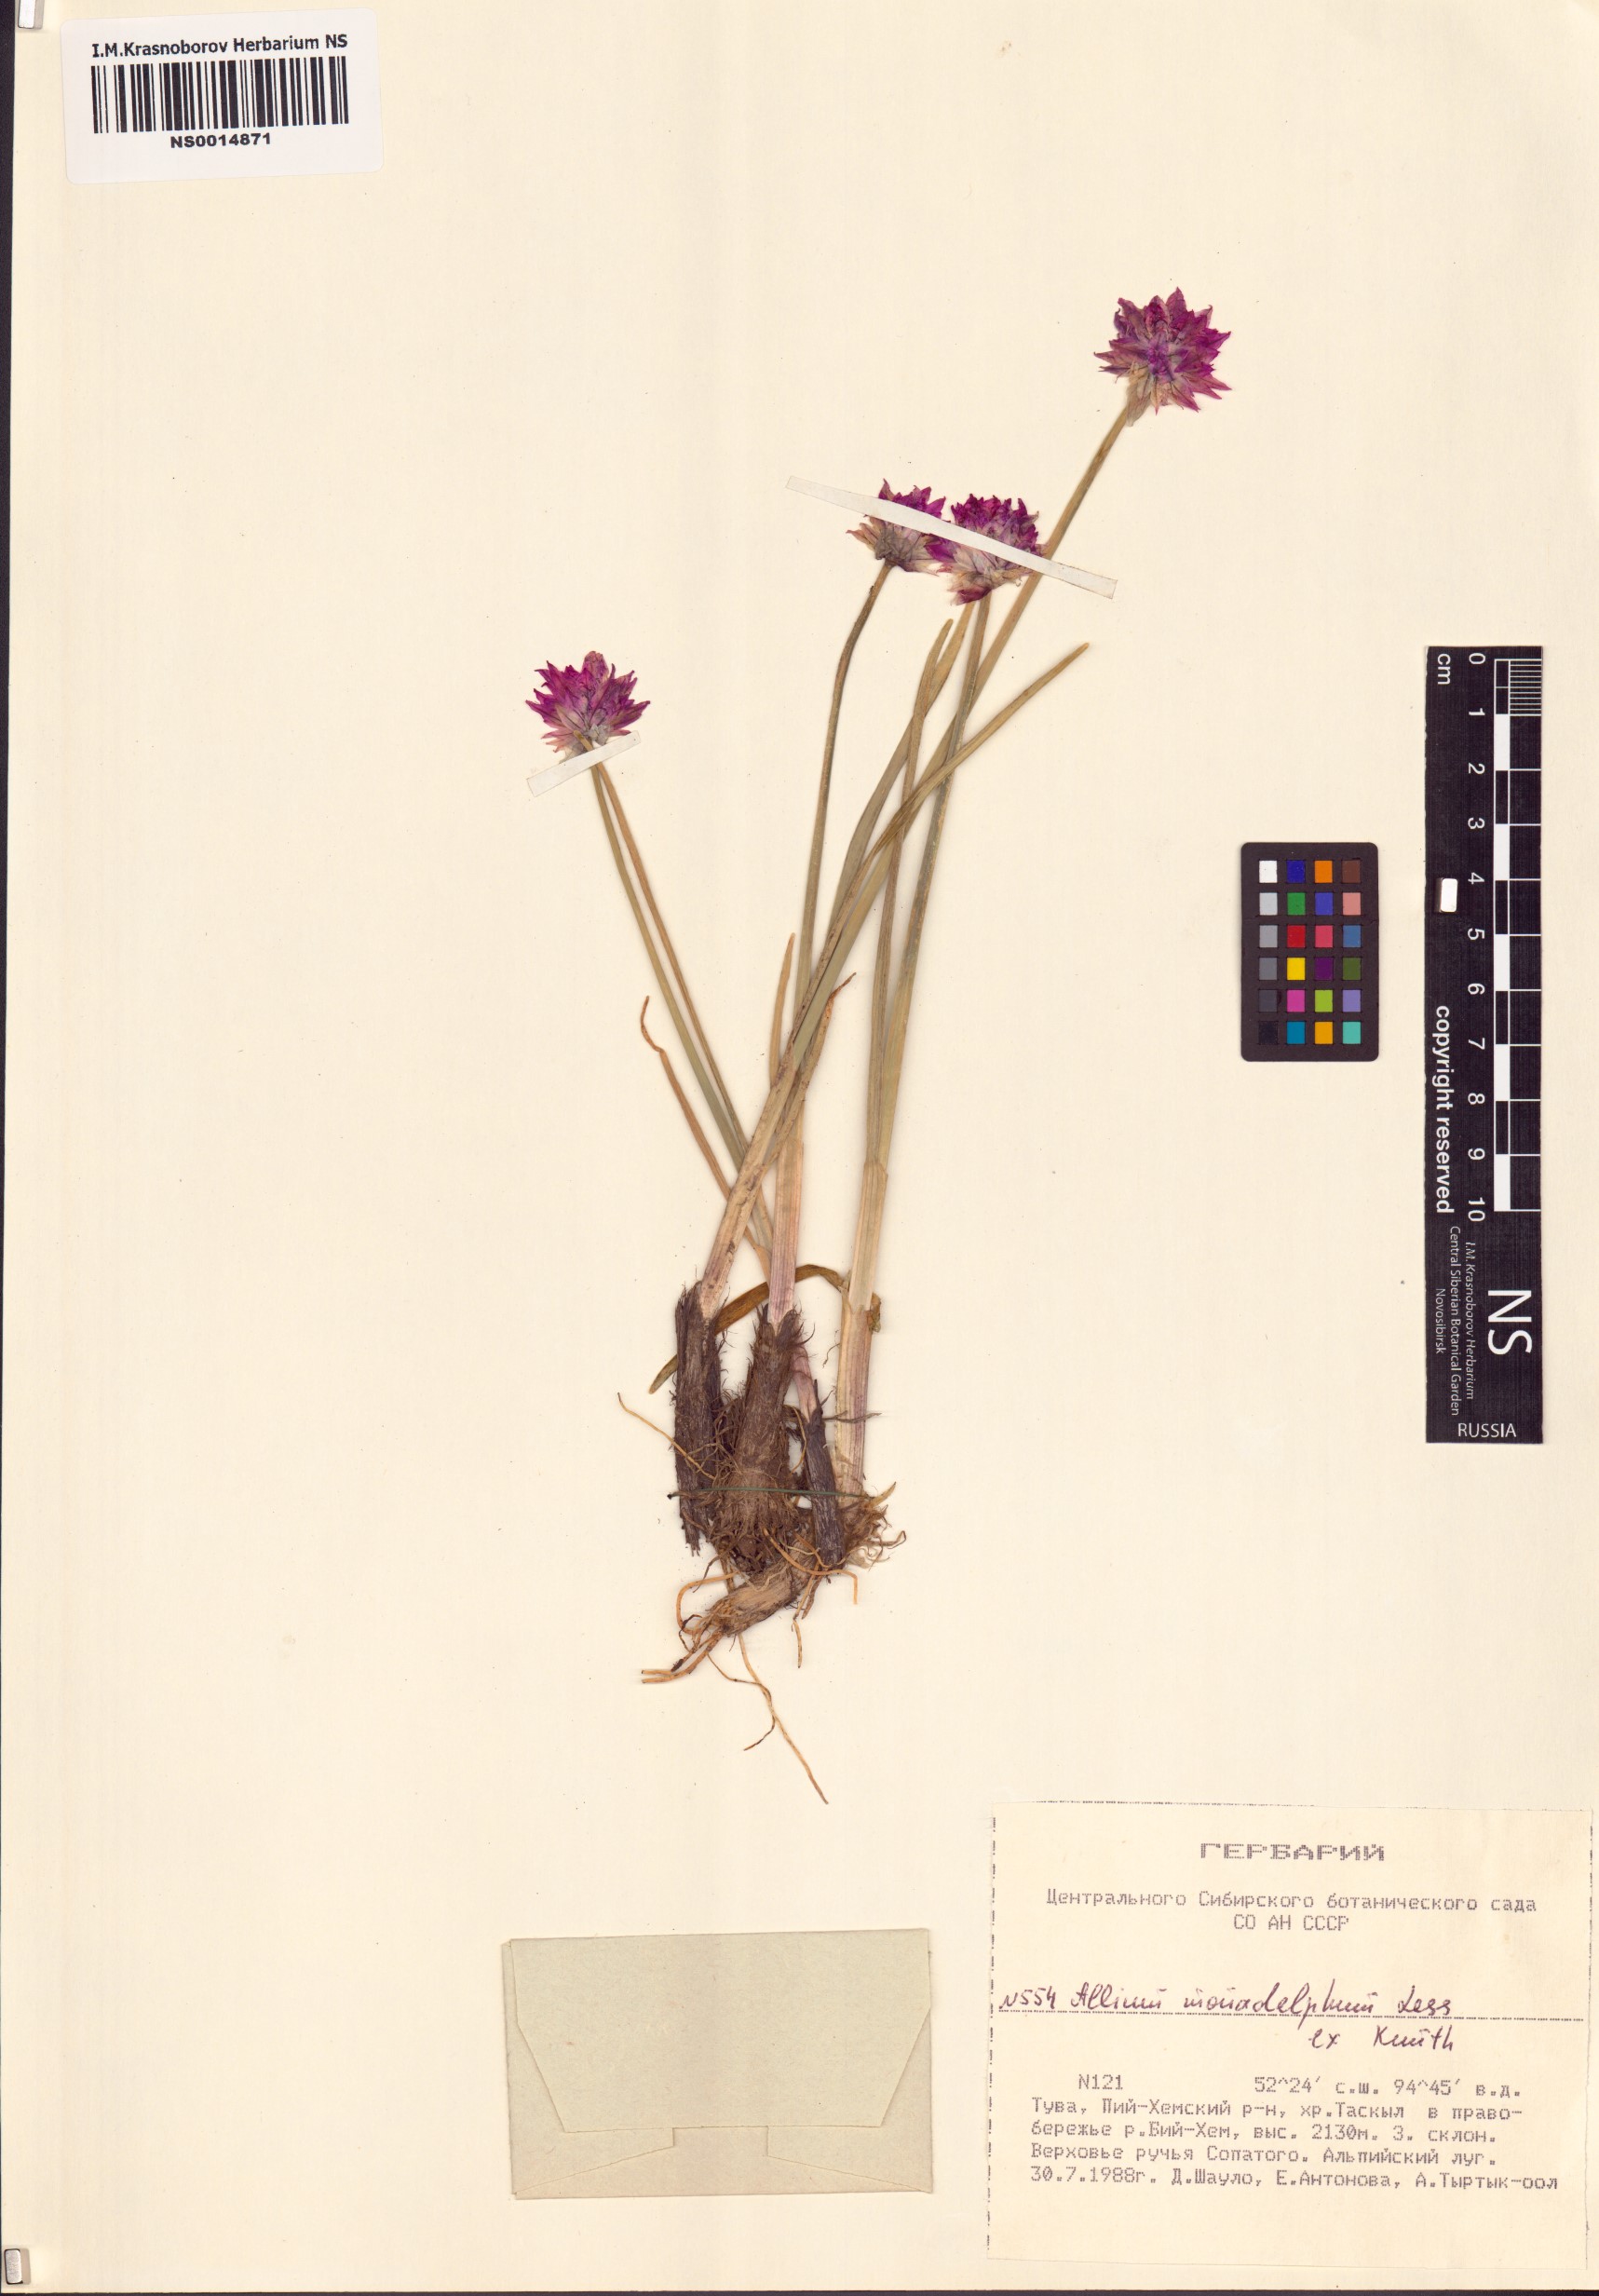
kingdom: Plantae
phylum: Tracheophyta
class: Liliopsida
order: Asparagales
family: Amaryllidaceae
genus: Allium
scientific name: Allium atrosanguineum
